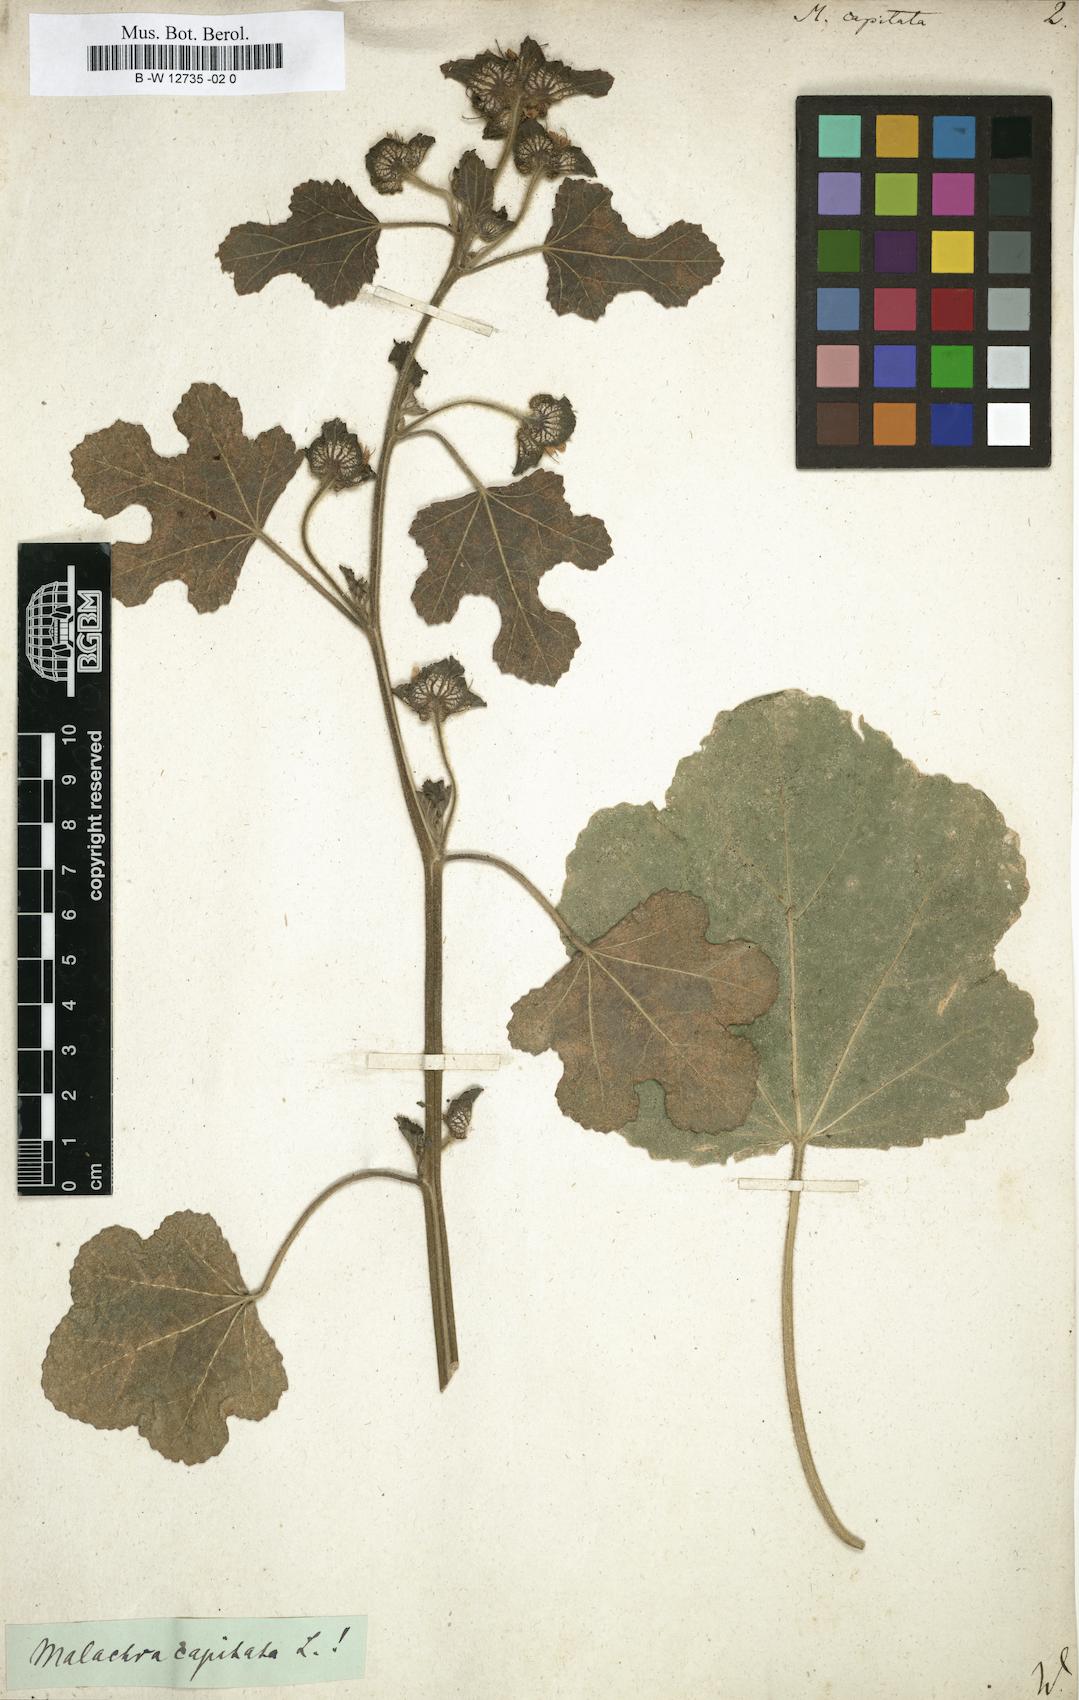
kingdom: Plantae
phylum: Tracheophyta
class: Magnoliopsida
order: Malvales
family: Malvaceae
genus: Malachra
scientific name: Malachra capitata
